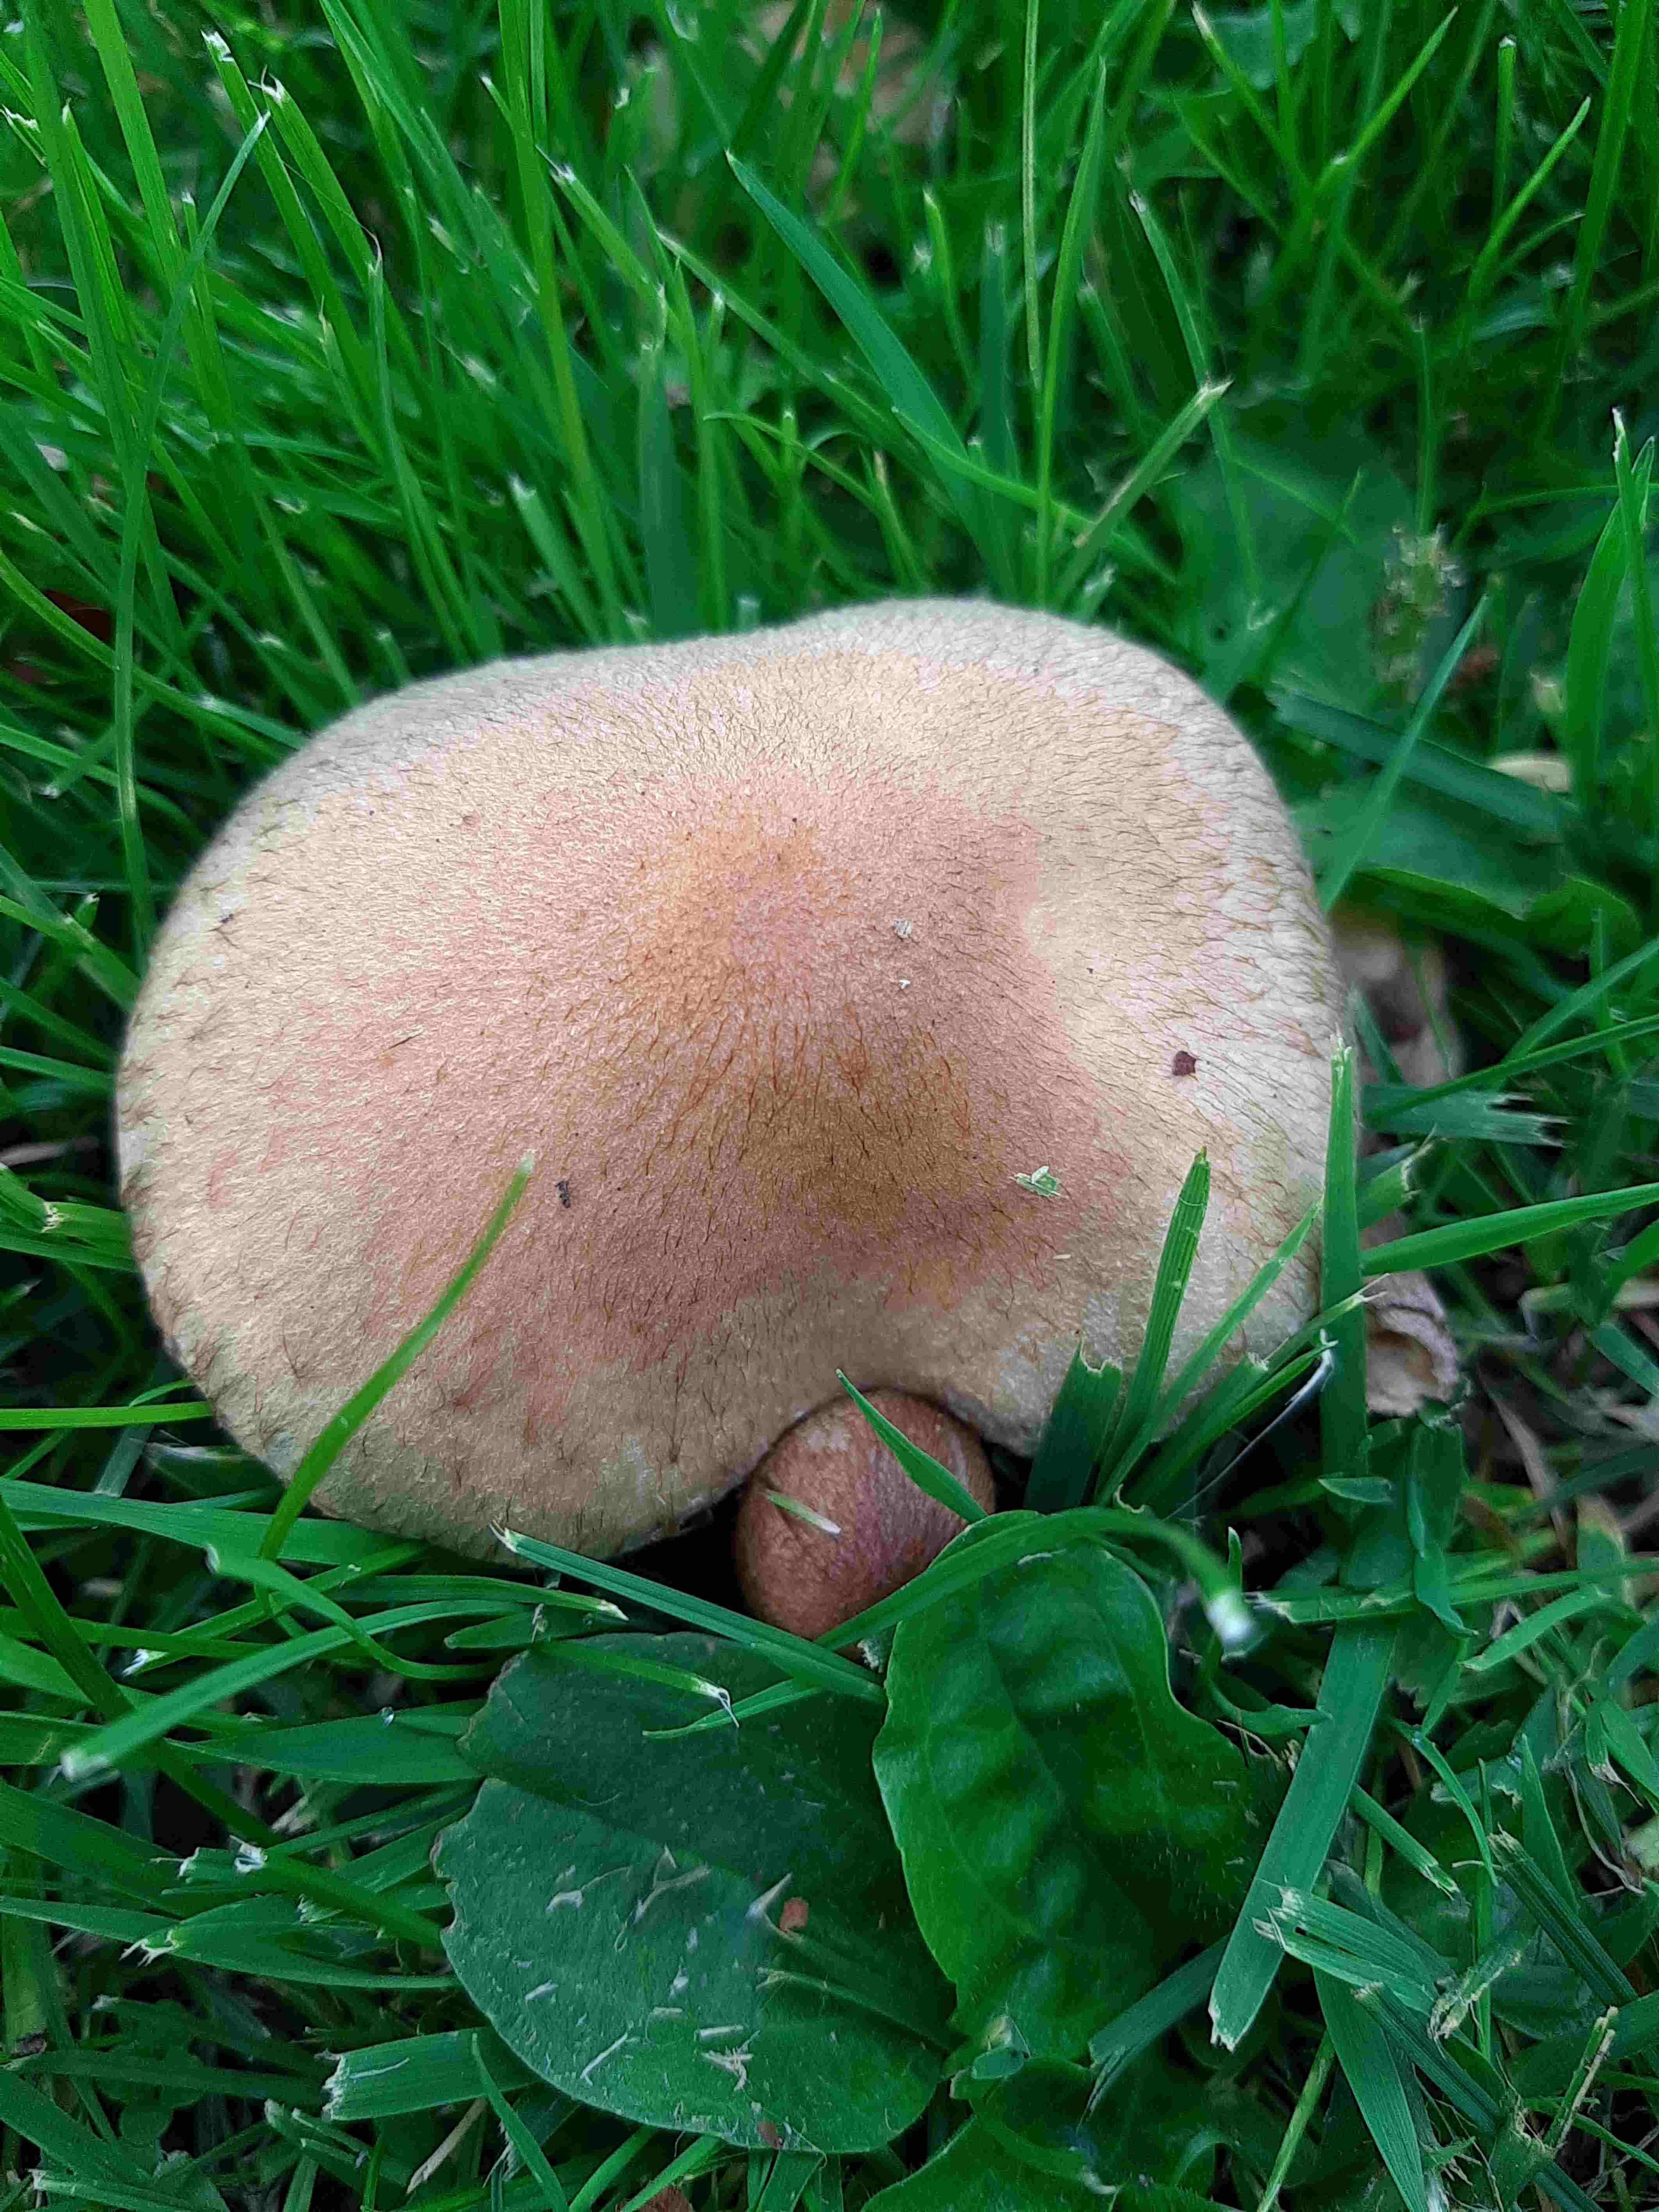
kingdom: Fungi
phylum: Basidiomycota
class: Agaricomycetes
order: Agaricales
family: Psathyrellaceae
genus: Lacrymaria
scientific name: Lacrymaria lacrymabunda
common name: grædende mørkhat
